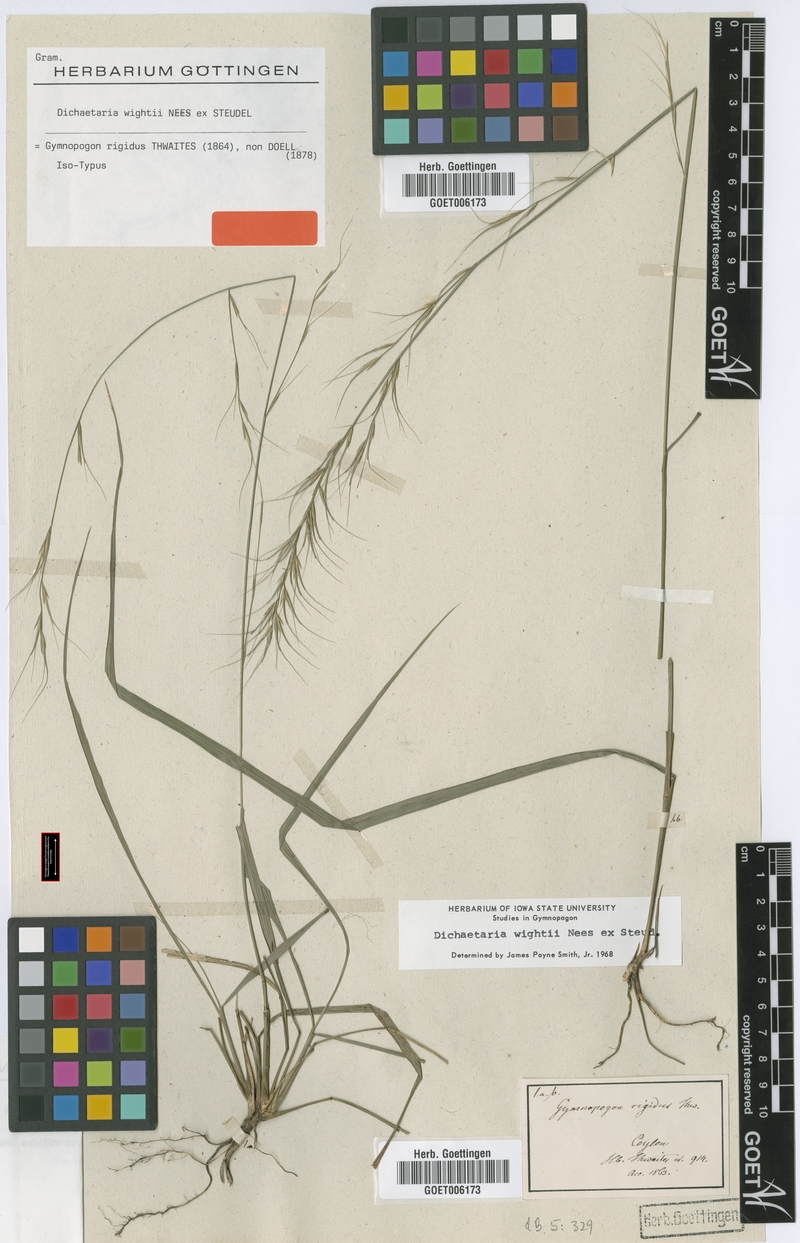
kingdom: Plantae
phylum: Tracheophyta
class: Liliopsida
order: Poales
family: Poaceae
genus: Dichaetaria
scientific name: Dichaetaria wightii
